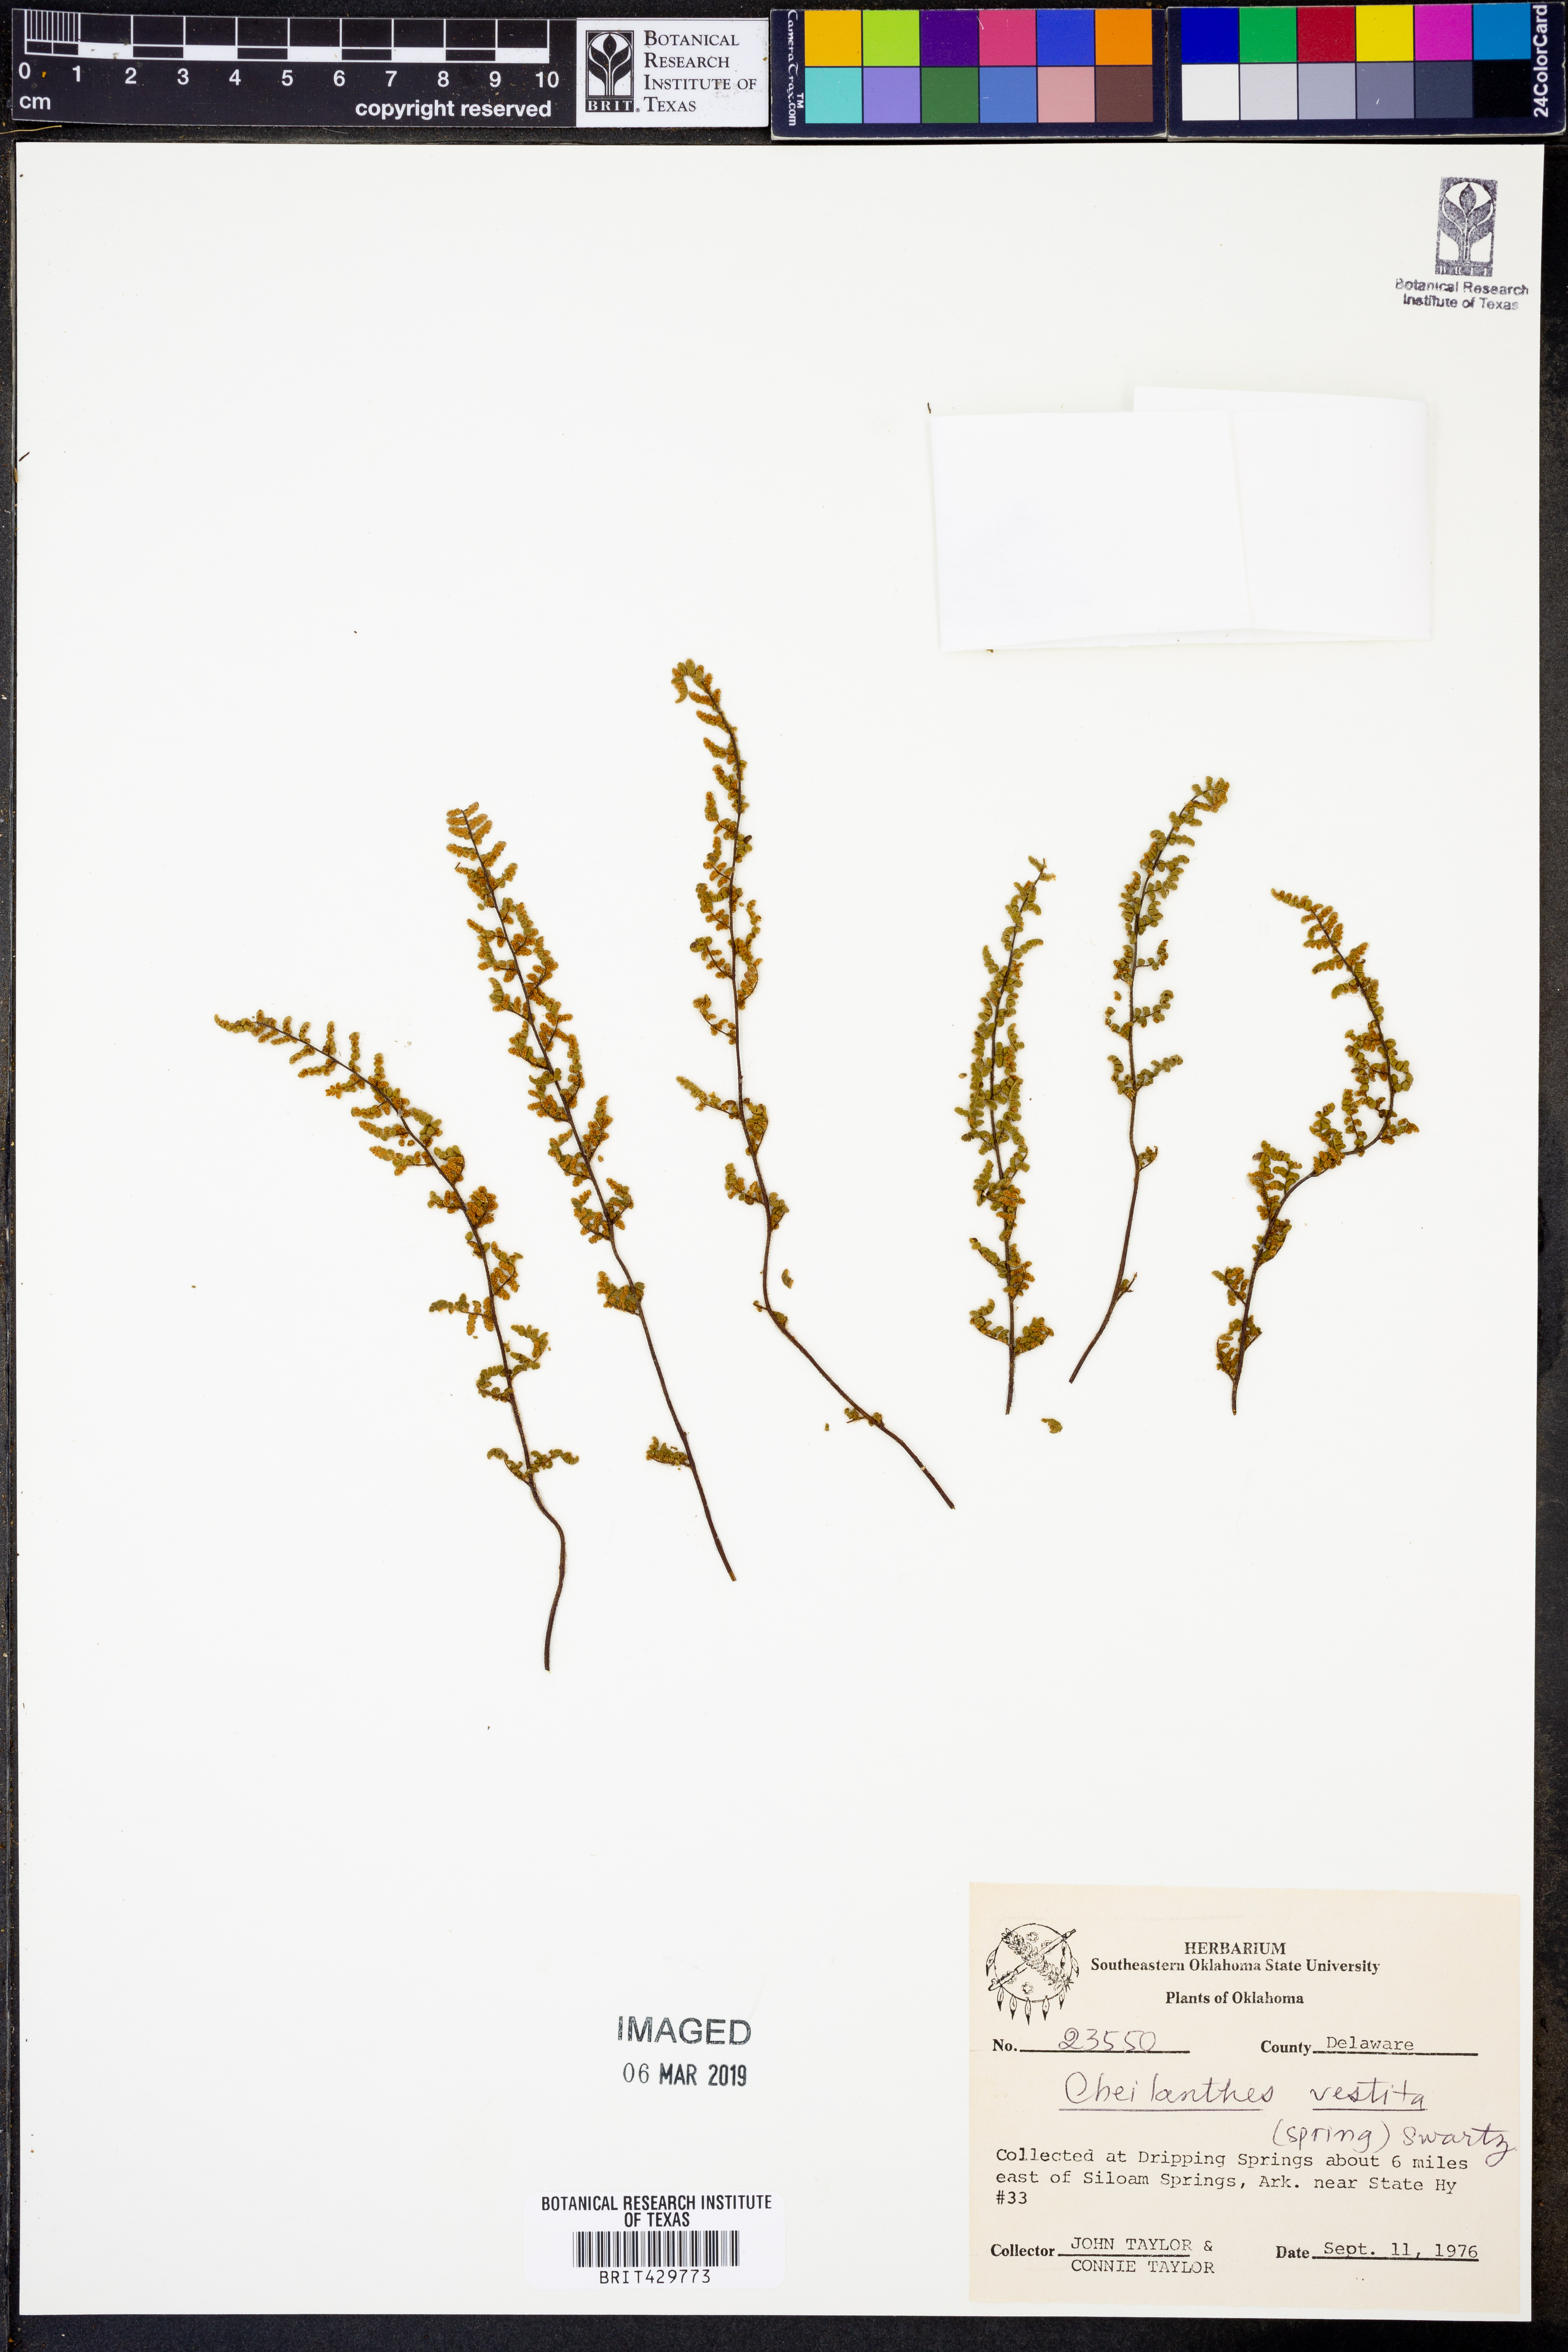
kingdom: Plantae
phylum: Tracheophyta
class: Polypodiopsida
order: Polypodiales
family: Pteridaceae
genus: Myriopteris
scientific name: Myriopteris lanosa
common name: Hairy lip fern
